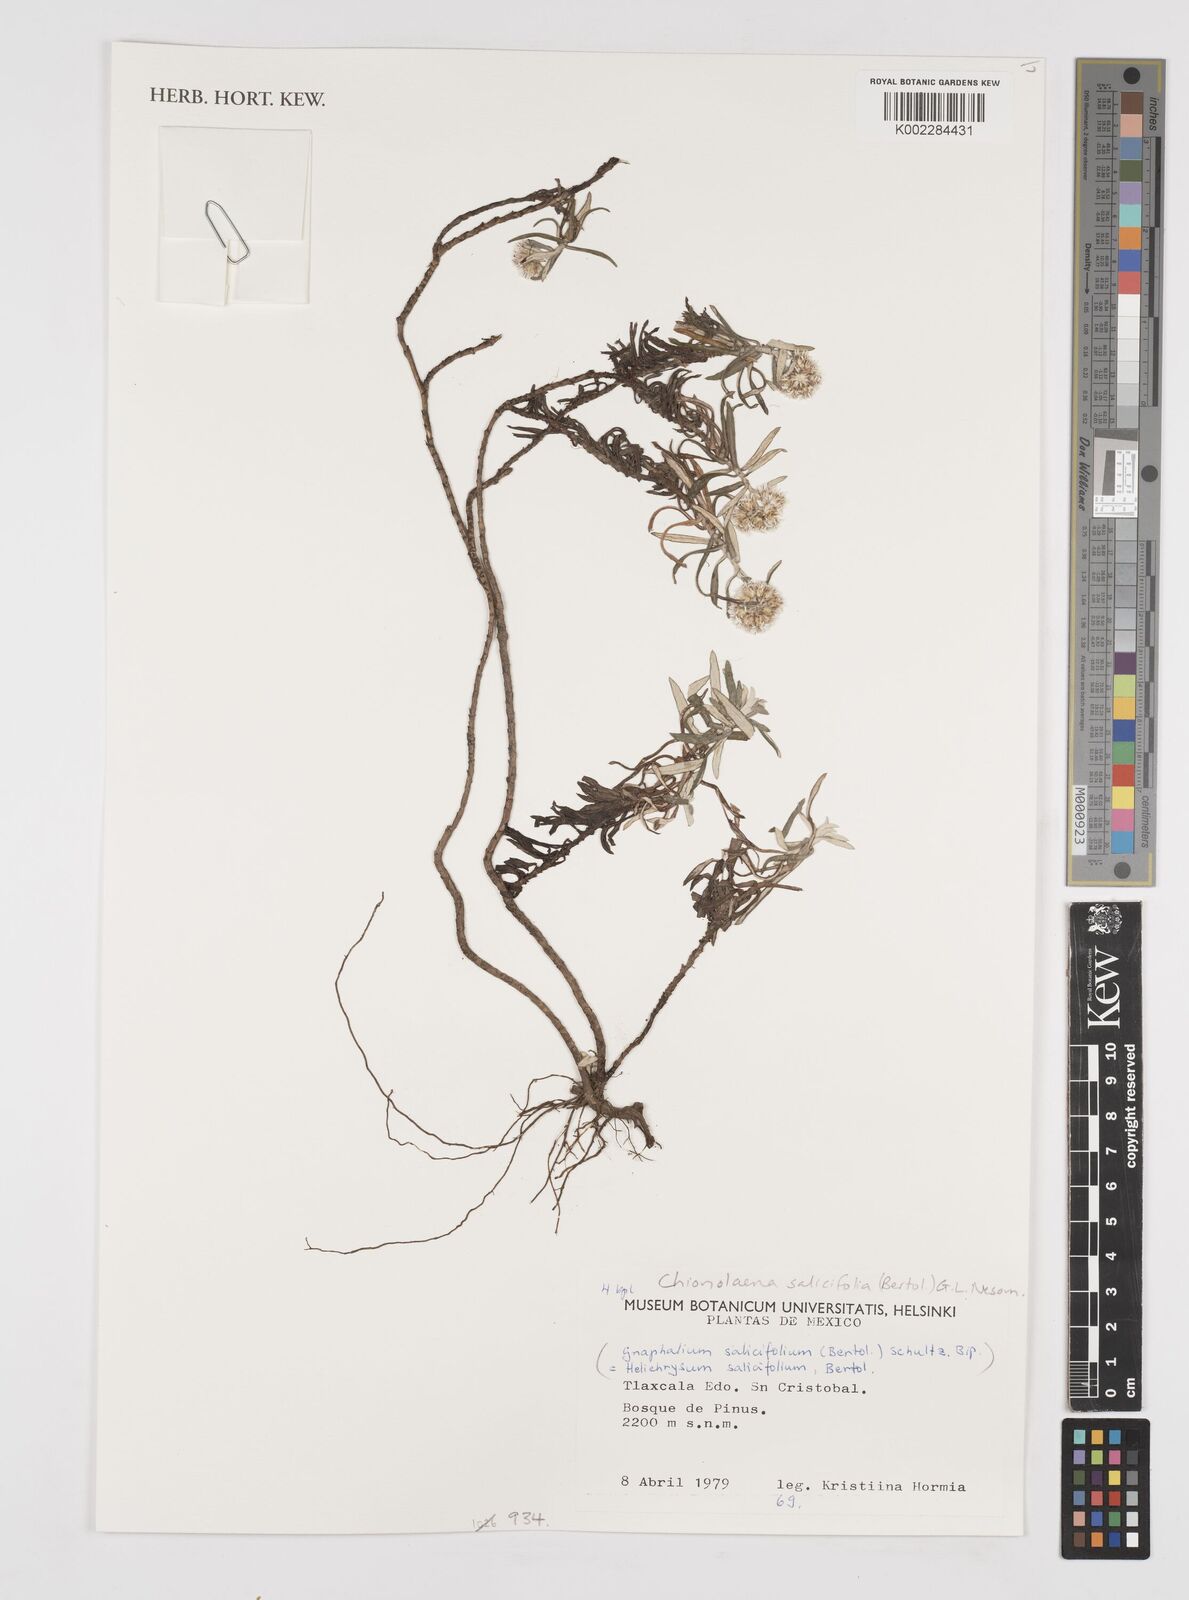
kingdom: Plantae
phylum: Tracheophyta
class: Magnoliopsida
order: Asterales
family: Asteraceae
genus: Gnaphaliothamnus
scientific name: Gnaphaliothamnus salicifolius
